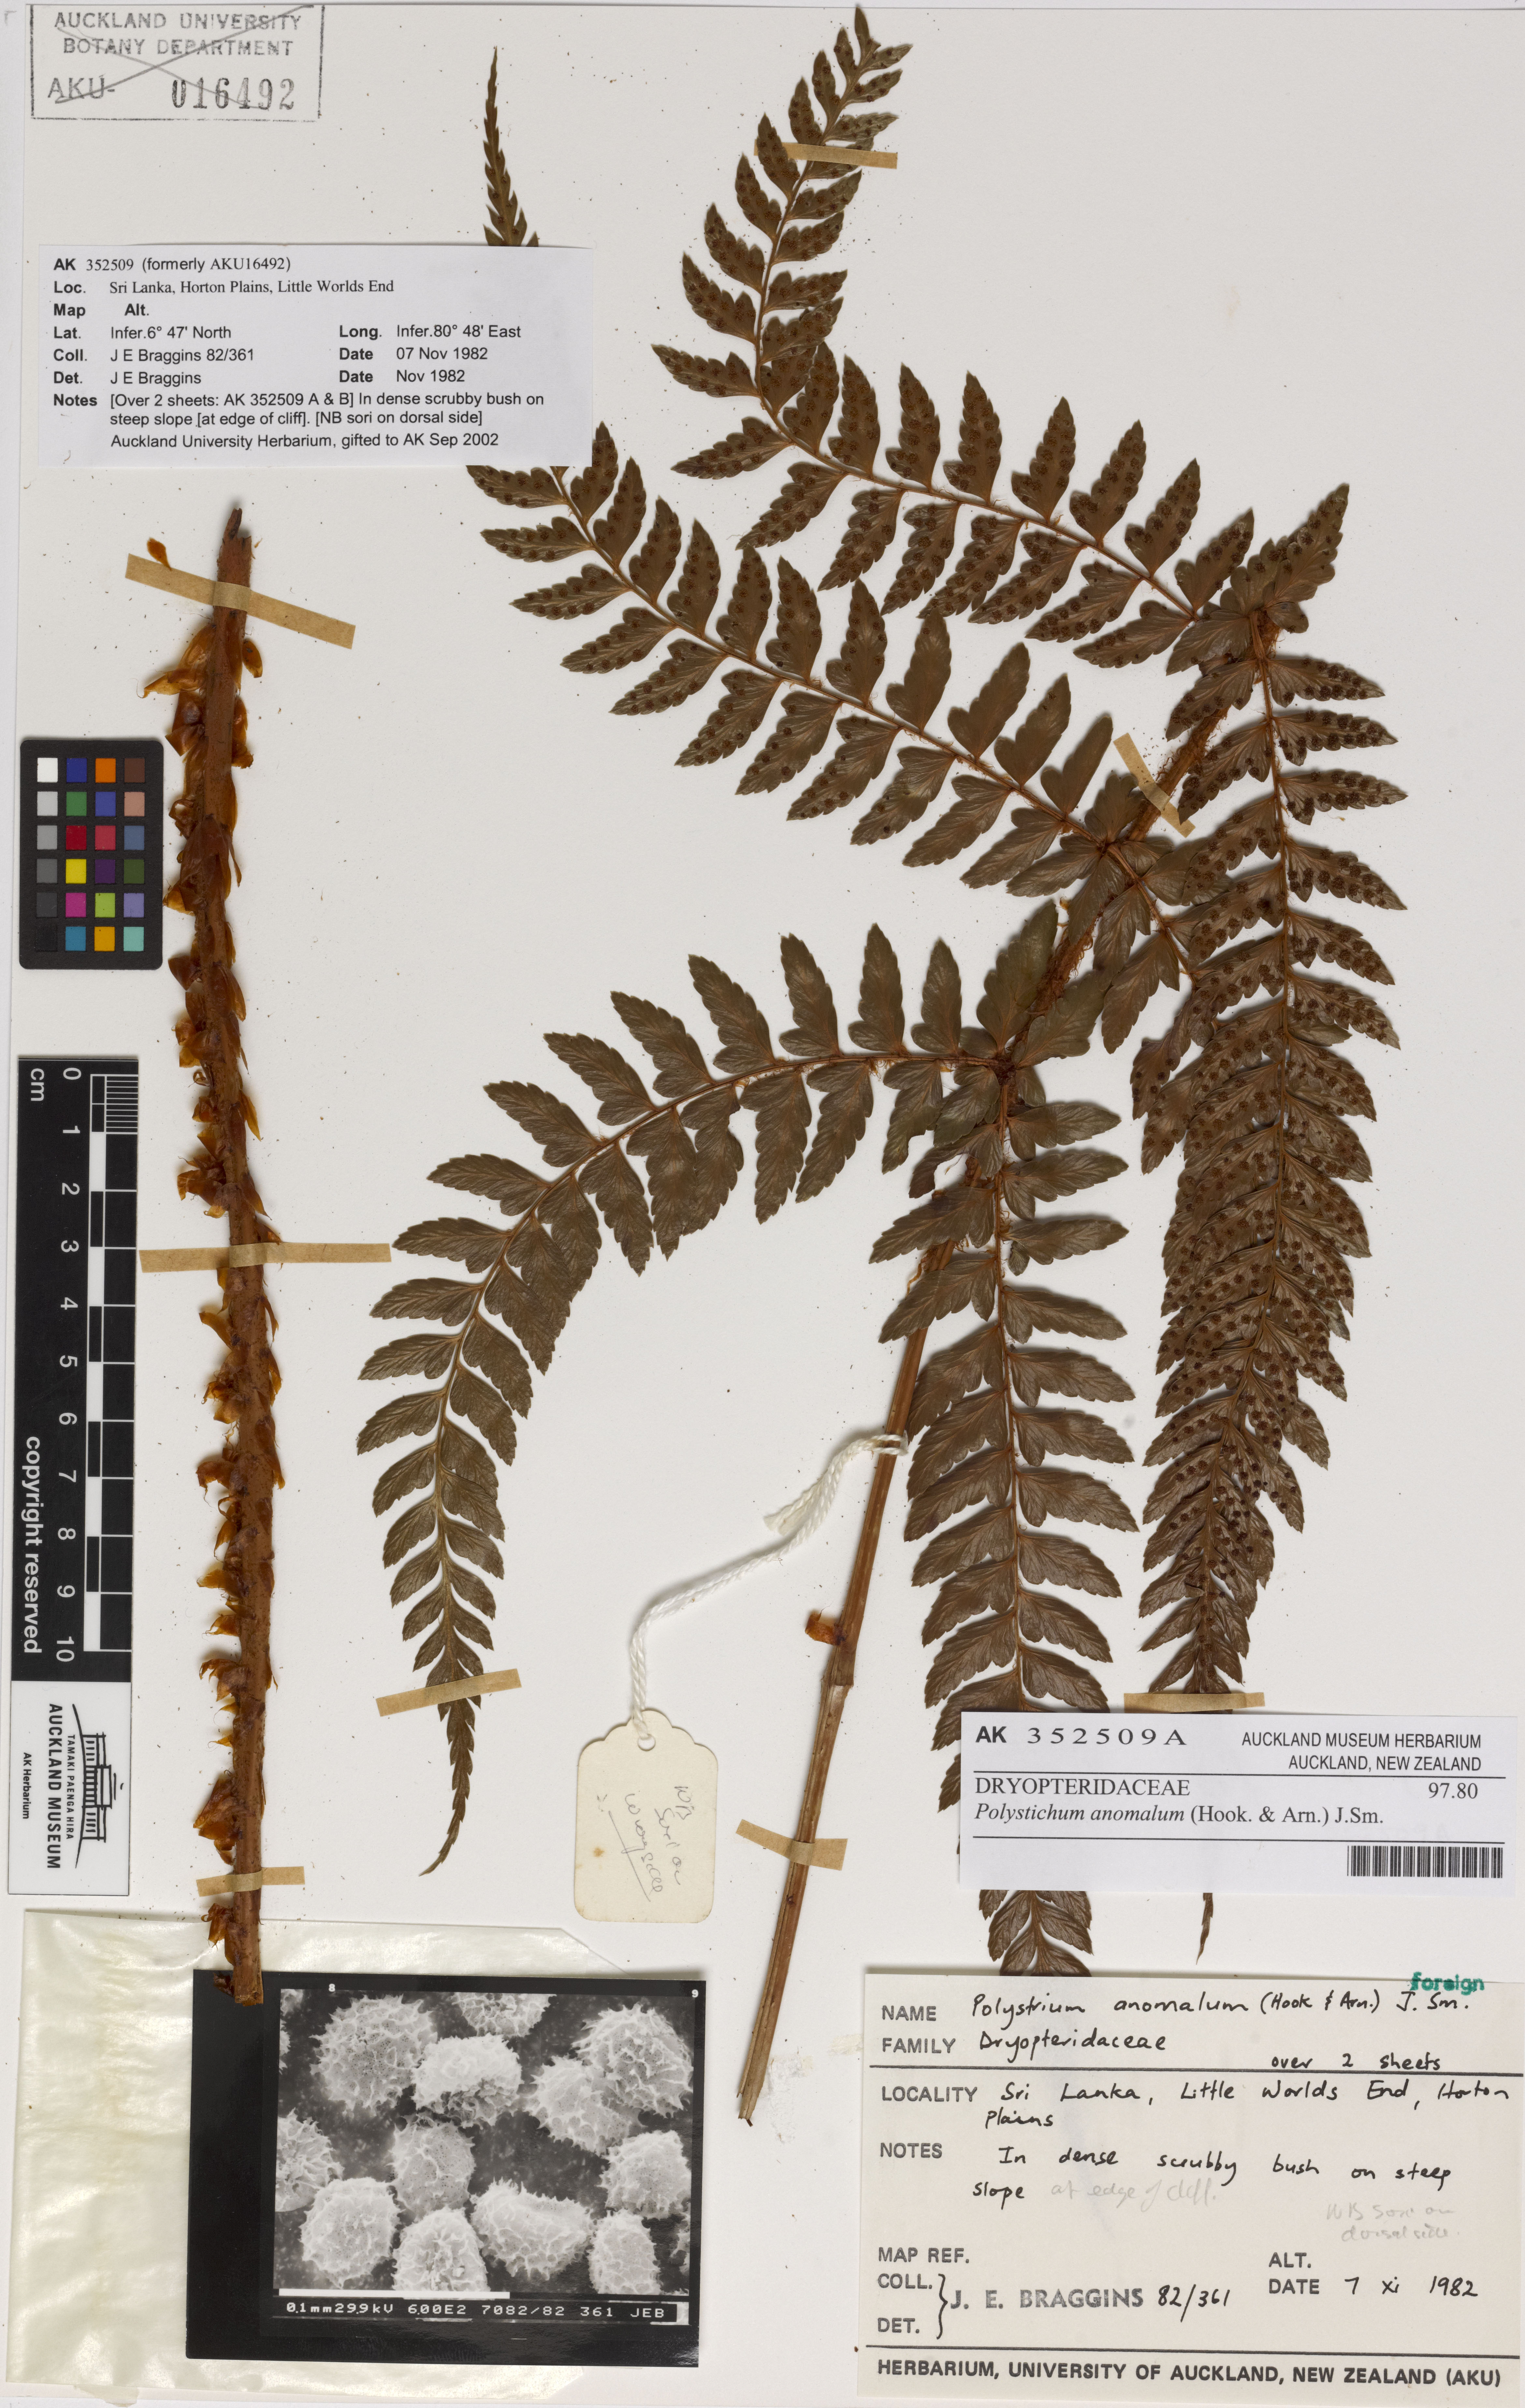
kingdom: Plantae
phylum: Tracheophyta
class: Polypodiopsida
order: Polypodiales
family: Dryopteridaceae
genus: Polystichum
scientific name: Polystichum anomalum
